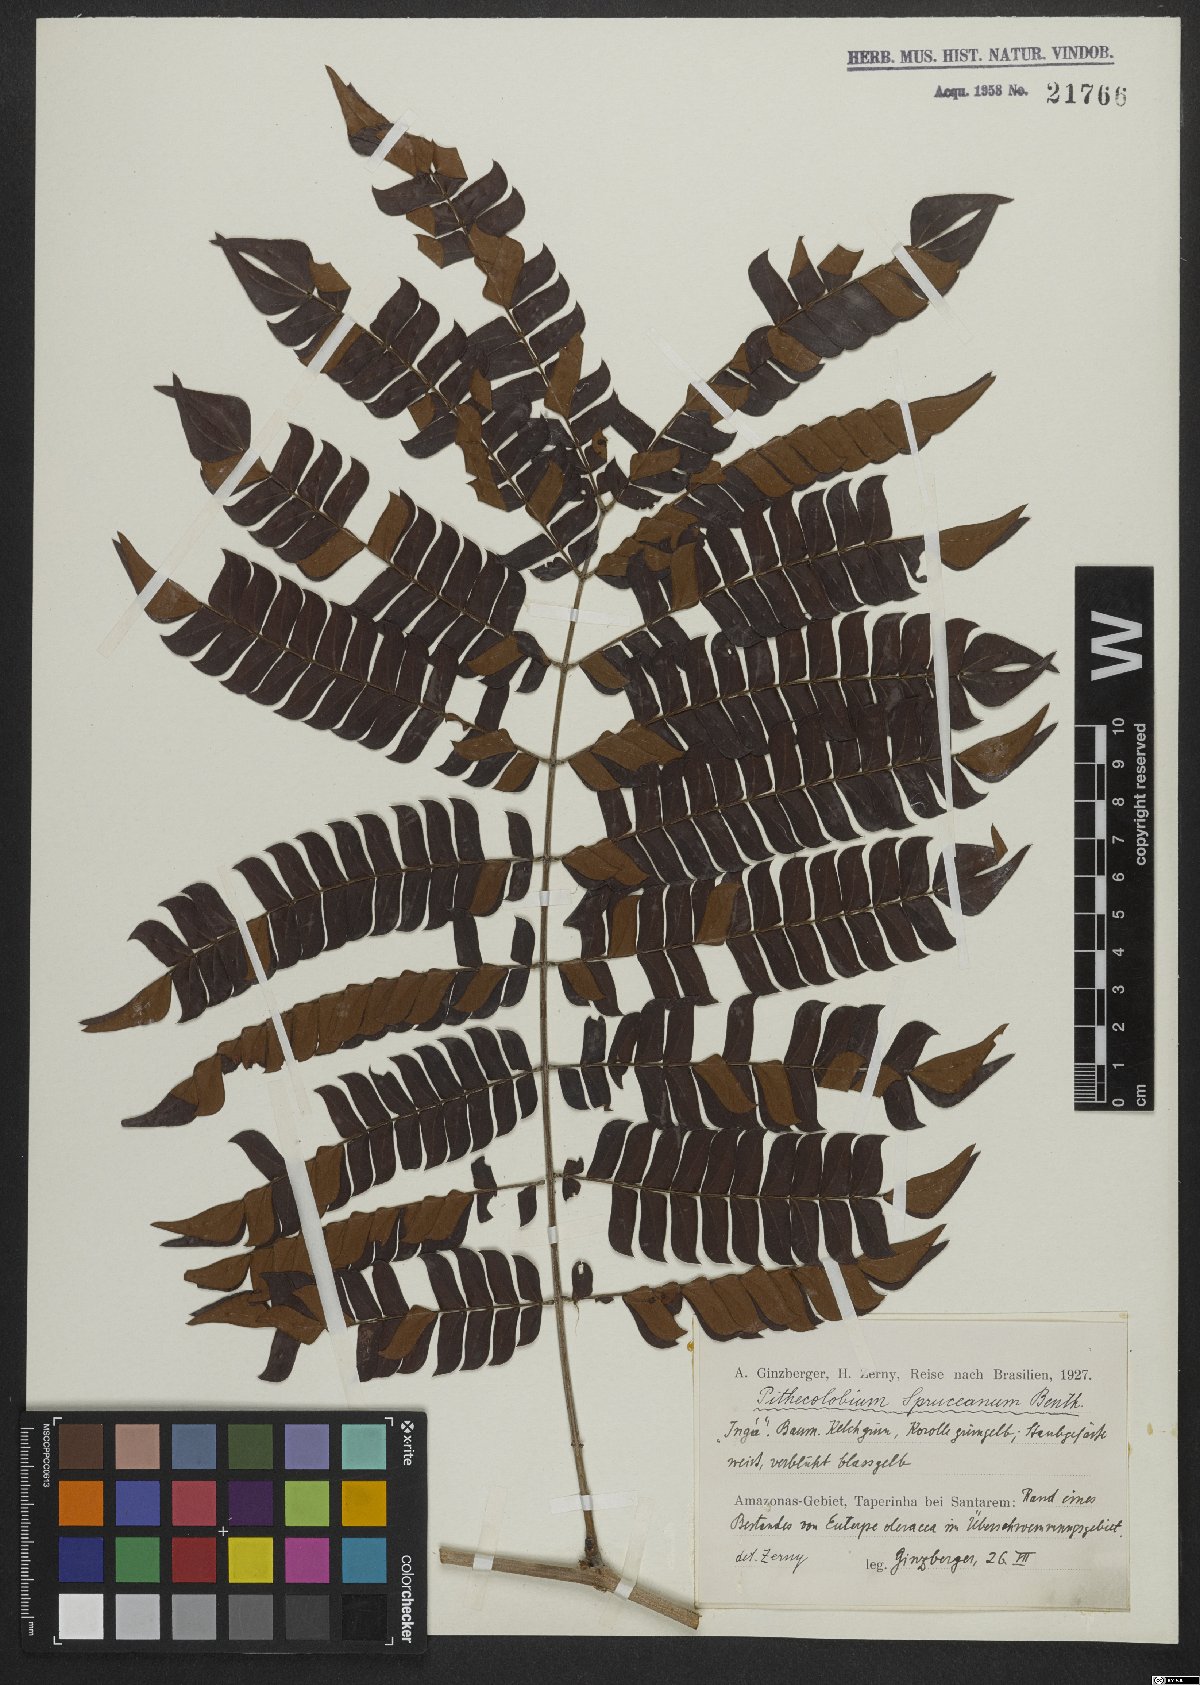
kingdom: Plantae
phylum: Tracheophyta
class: Magnoliopsida
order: Fabales
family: Fabaceae
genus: Macrosamanea
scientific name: Macrosamanea spruceana
